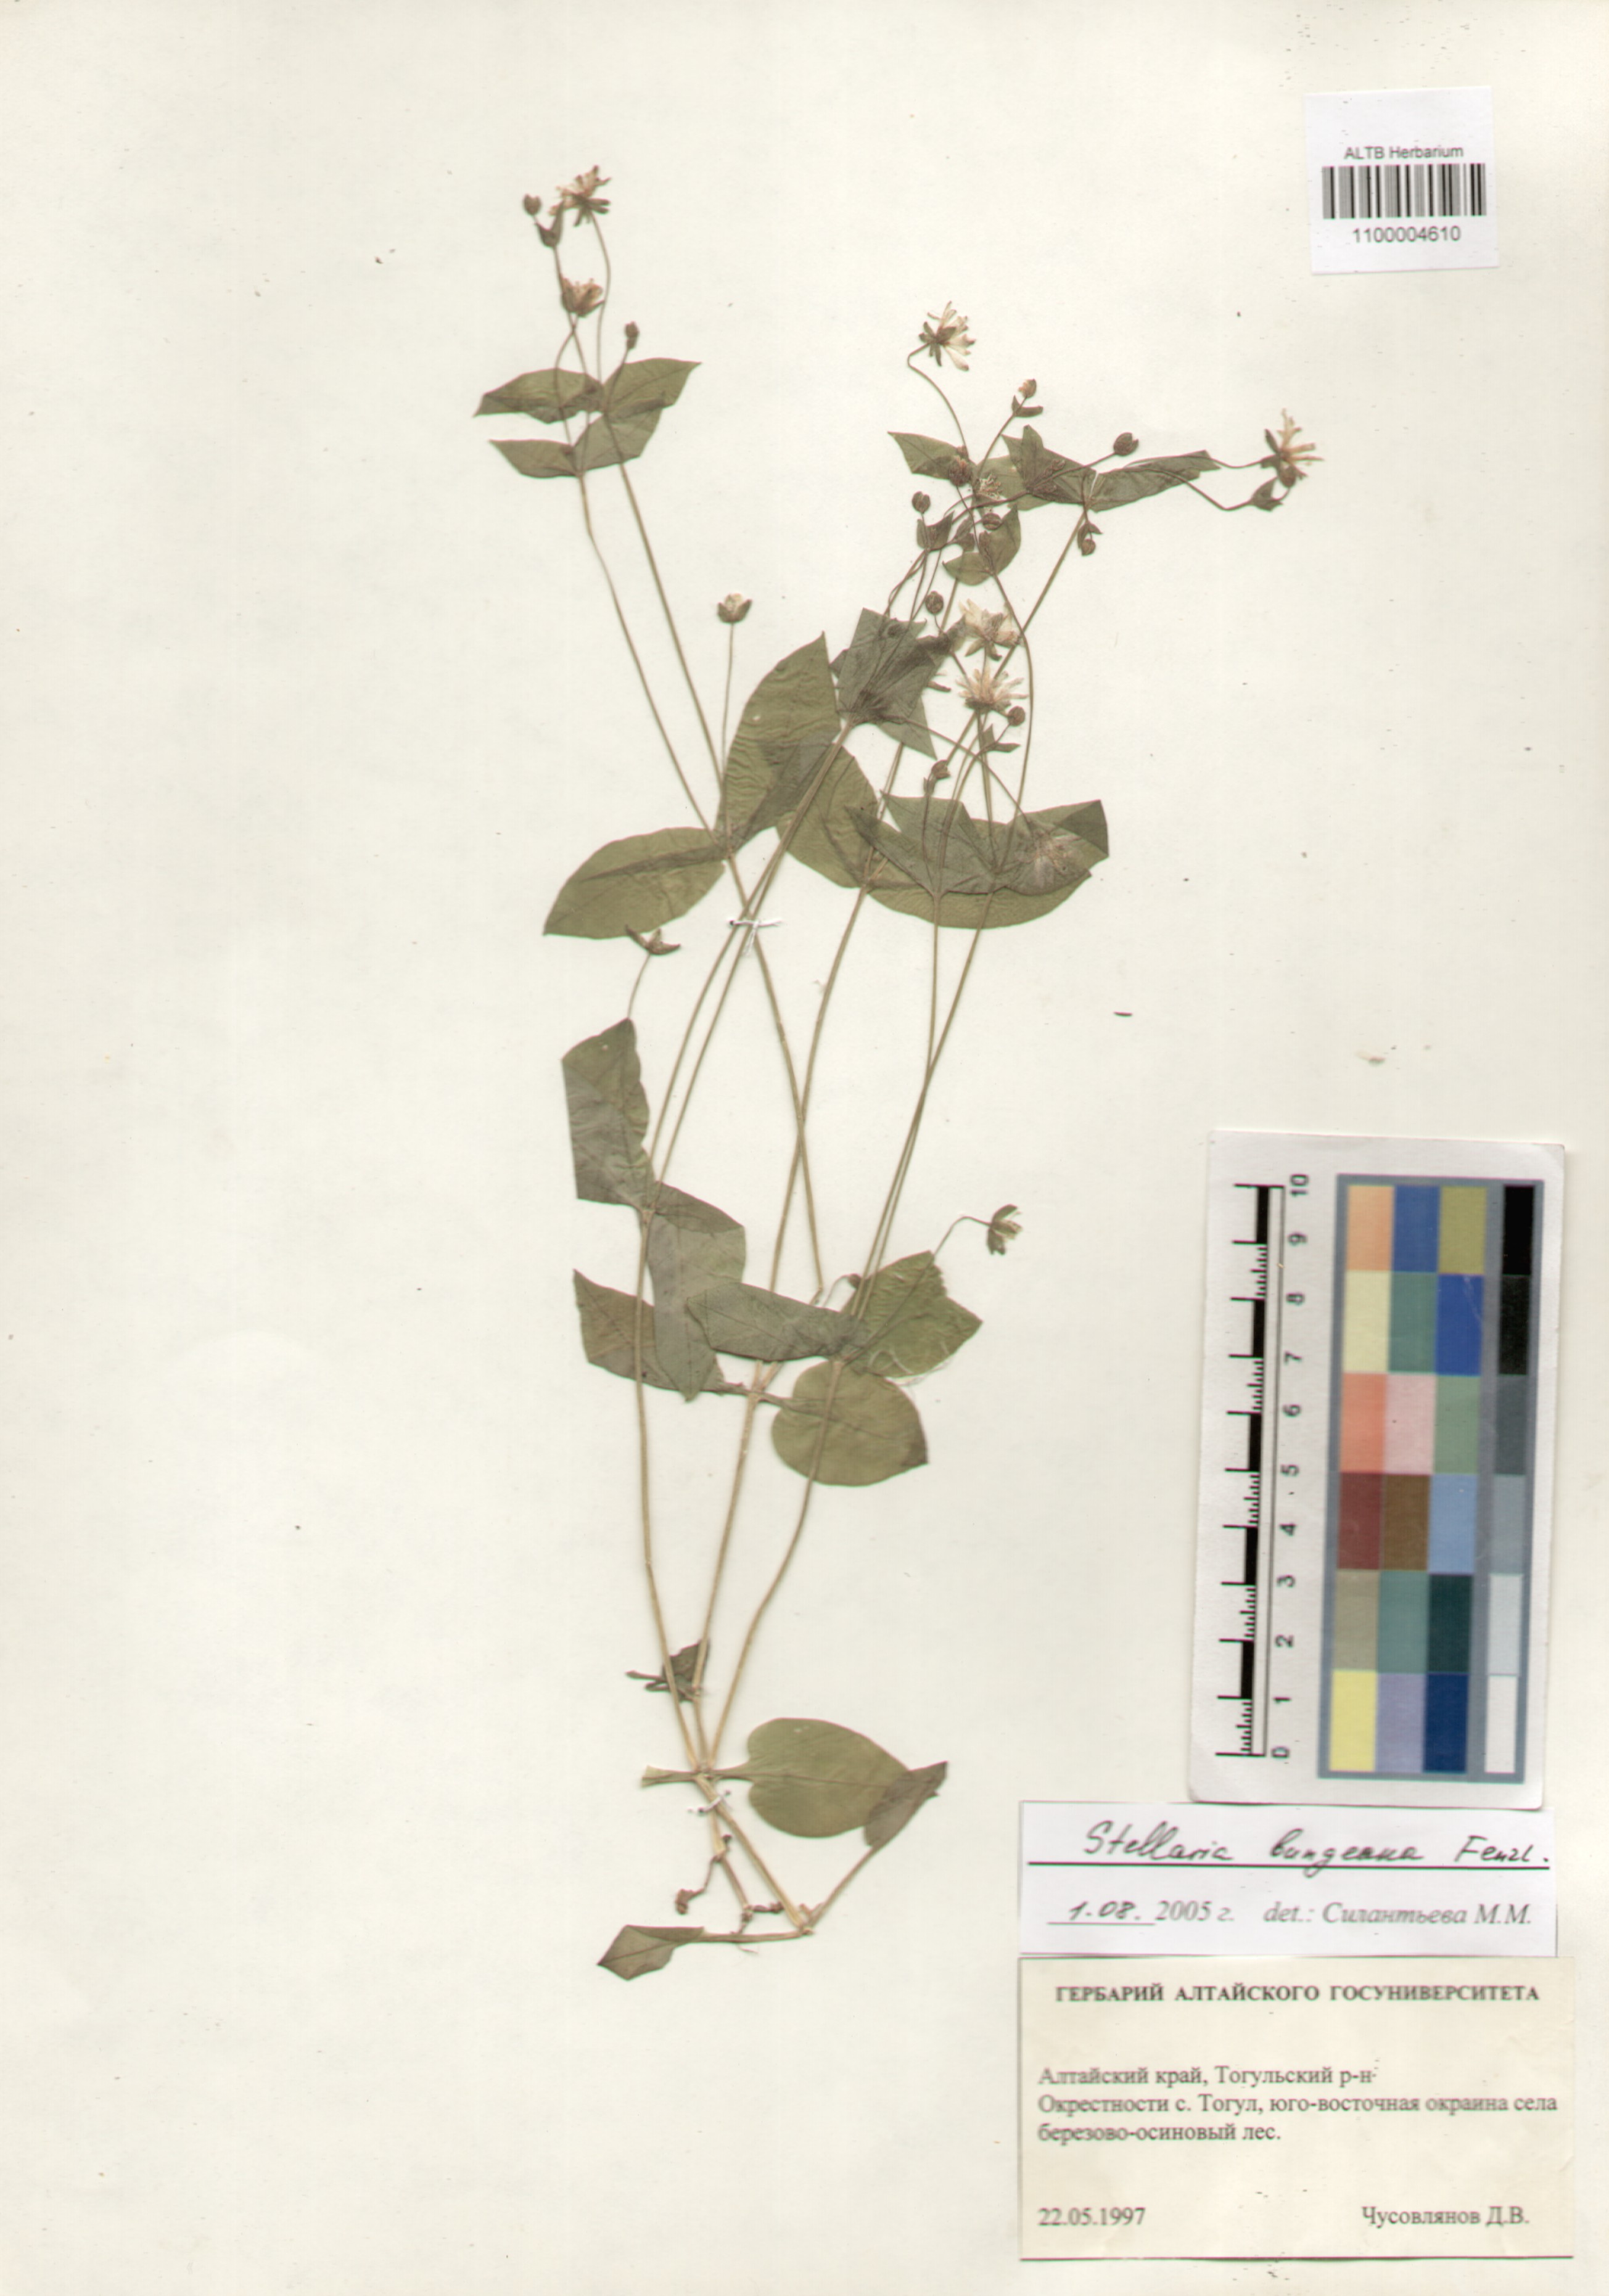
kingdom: Plantae
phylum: Tracheophyta
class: Magnoliopsida
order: Caryophyllales
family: Caryophyllaceae
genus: Stellaria
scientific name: Stellaria bungeana
